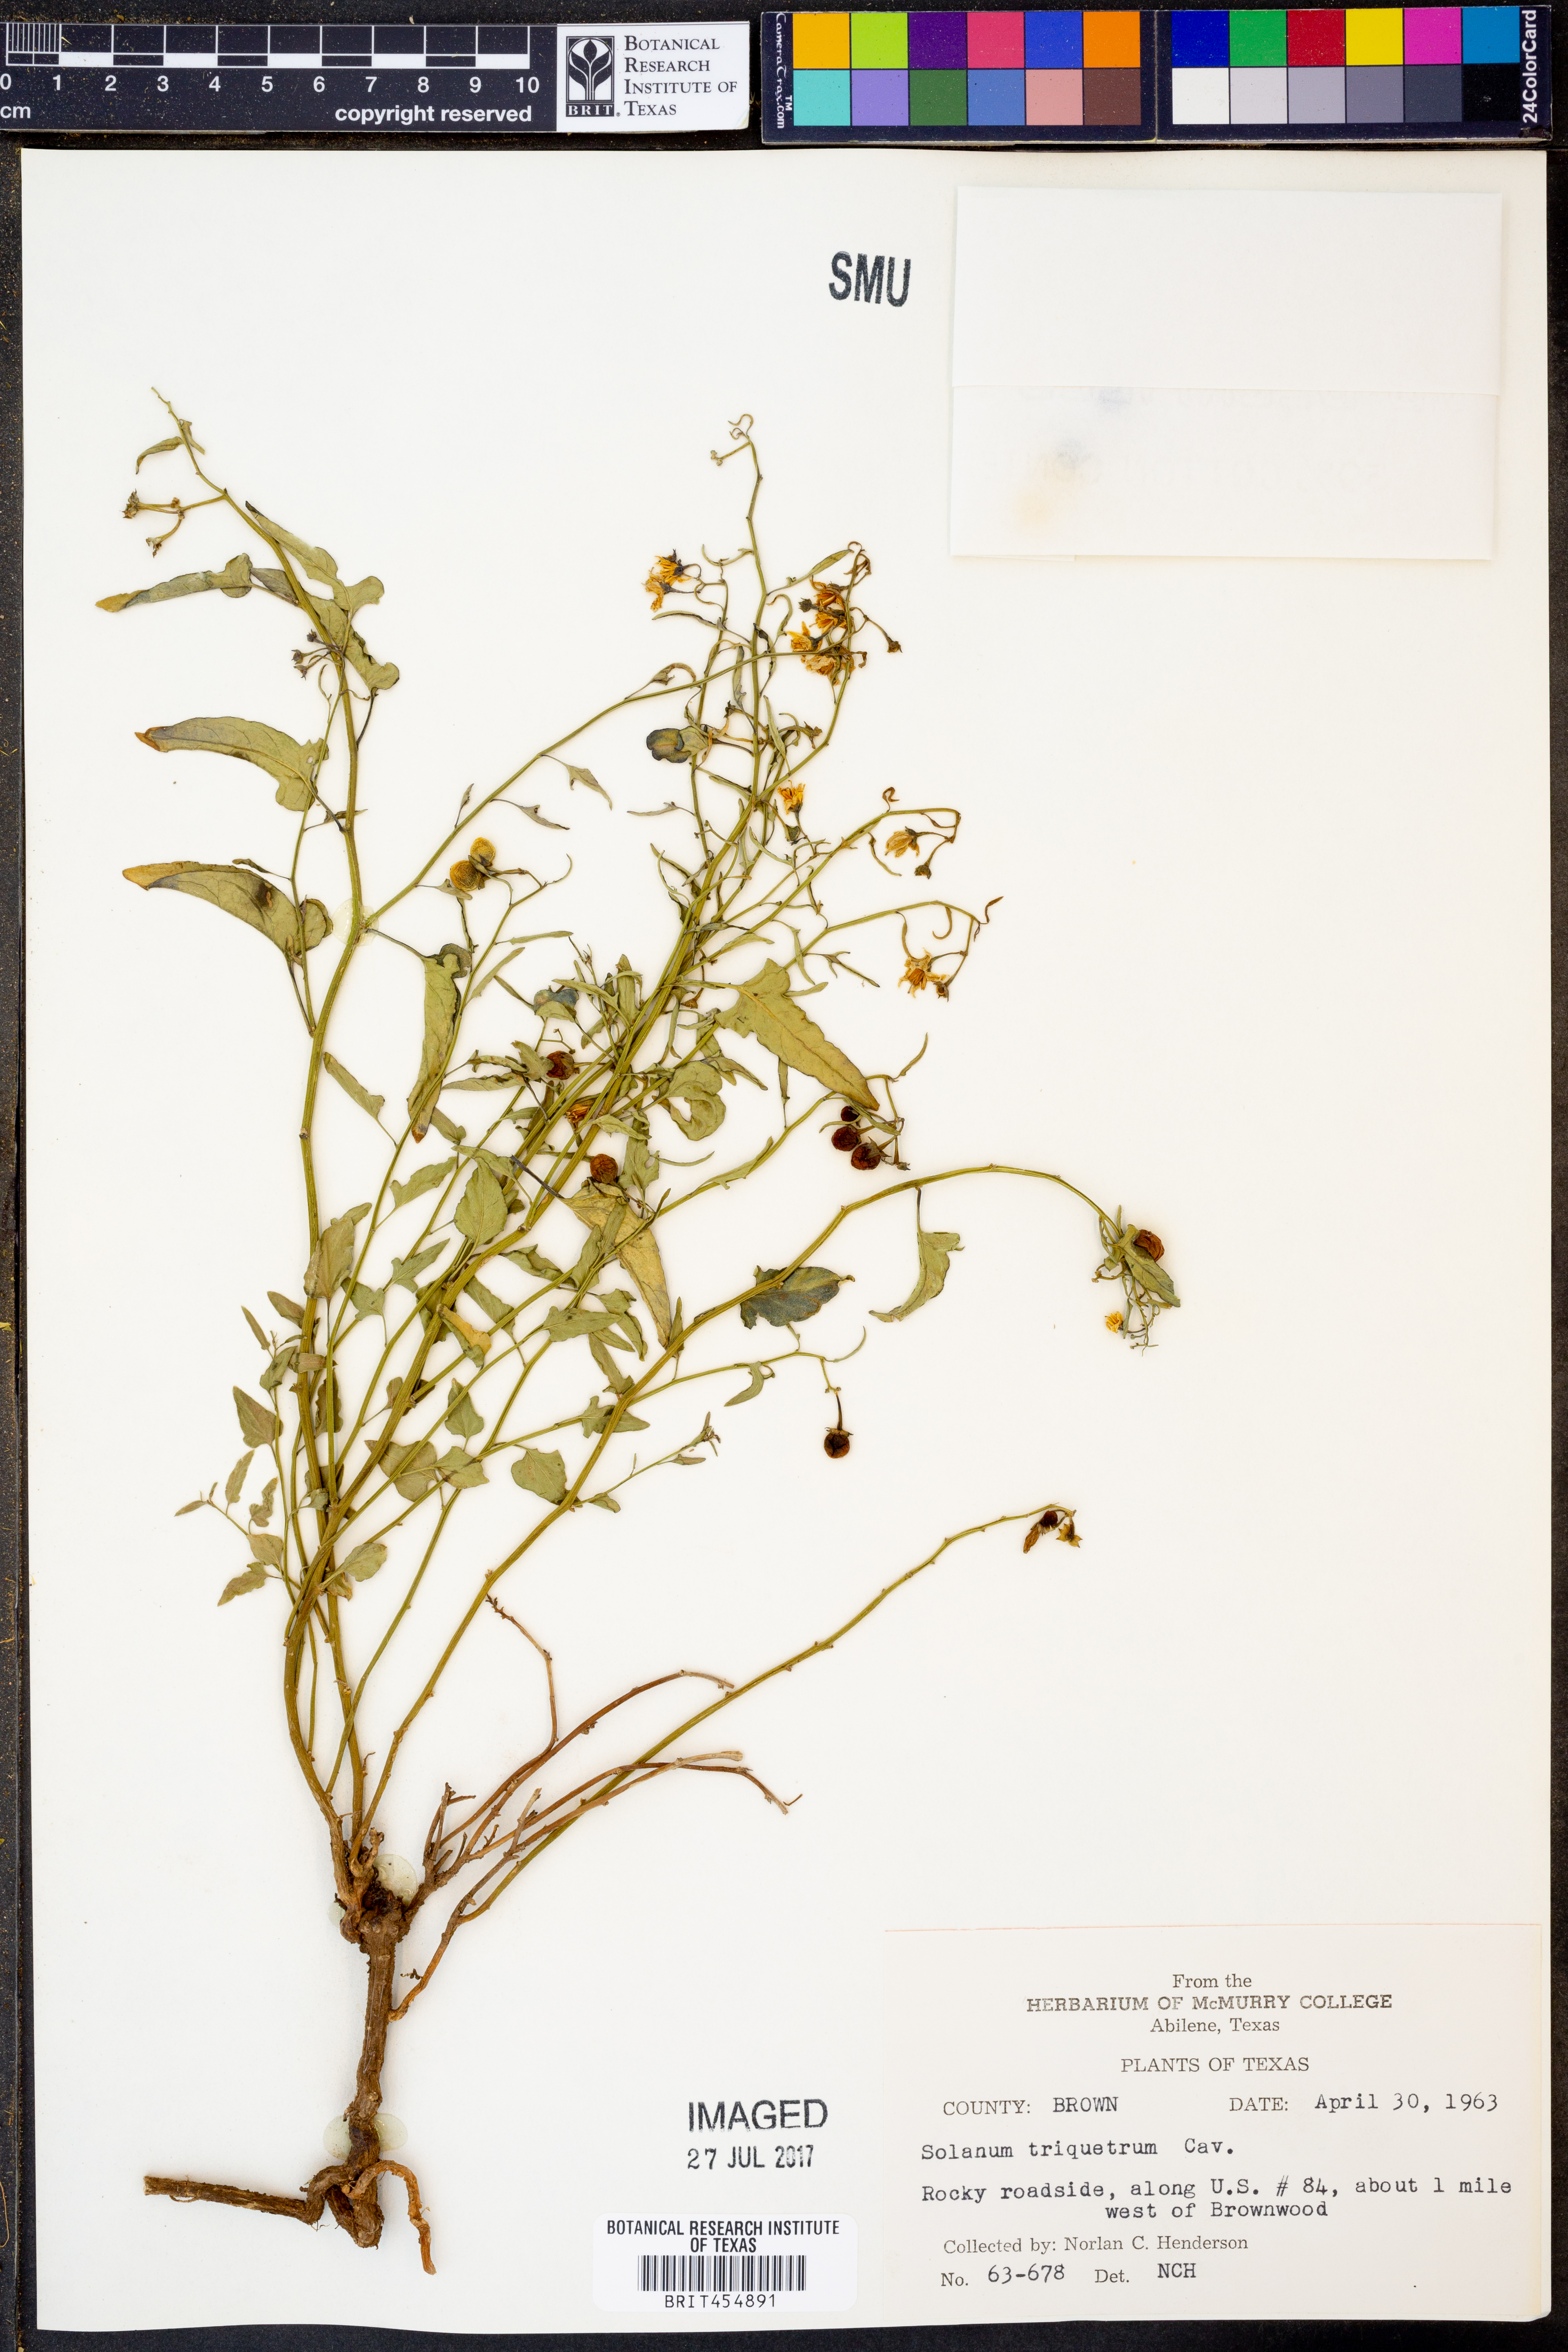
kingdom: Plantae
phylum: Tracheophyta
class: Magnoliopsida
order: Solanales
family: Solanaceae
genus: Solanum
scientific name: Solanum triquetrum
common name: Texas nightshade
